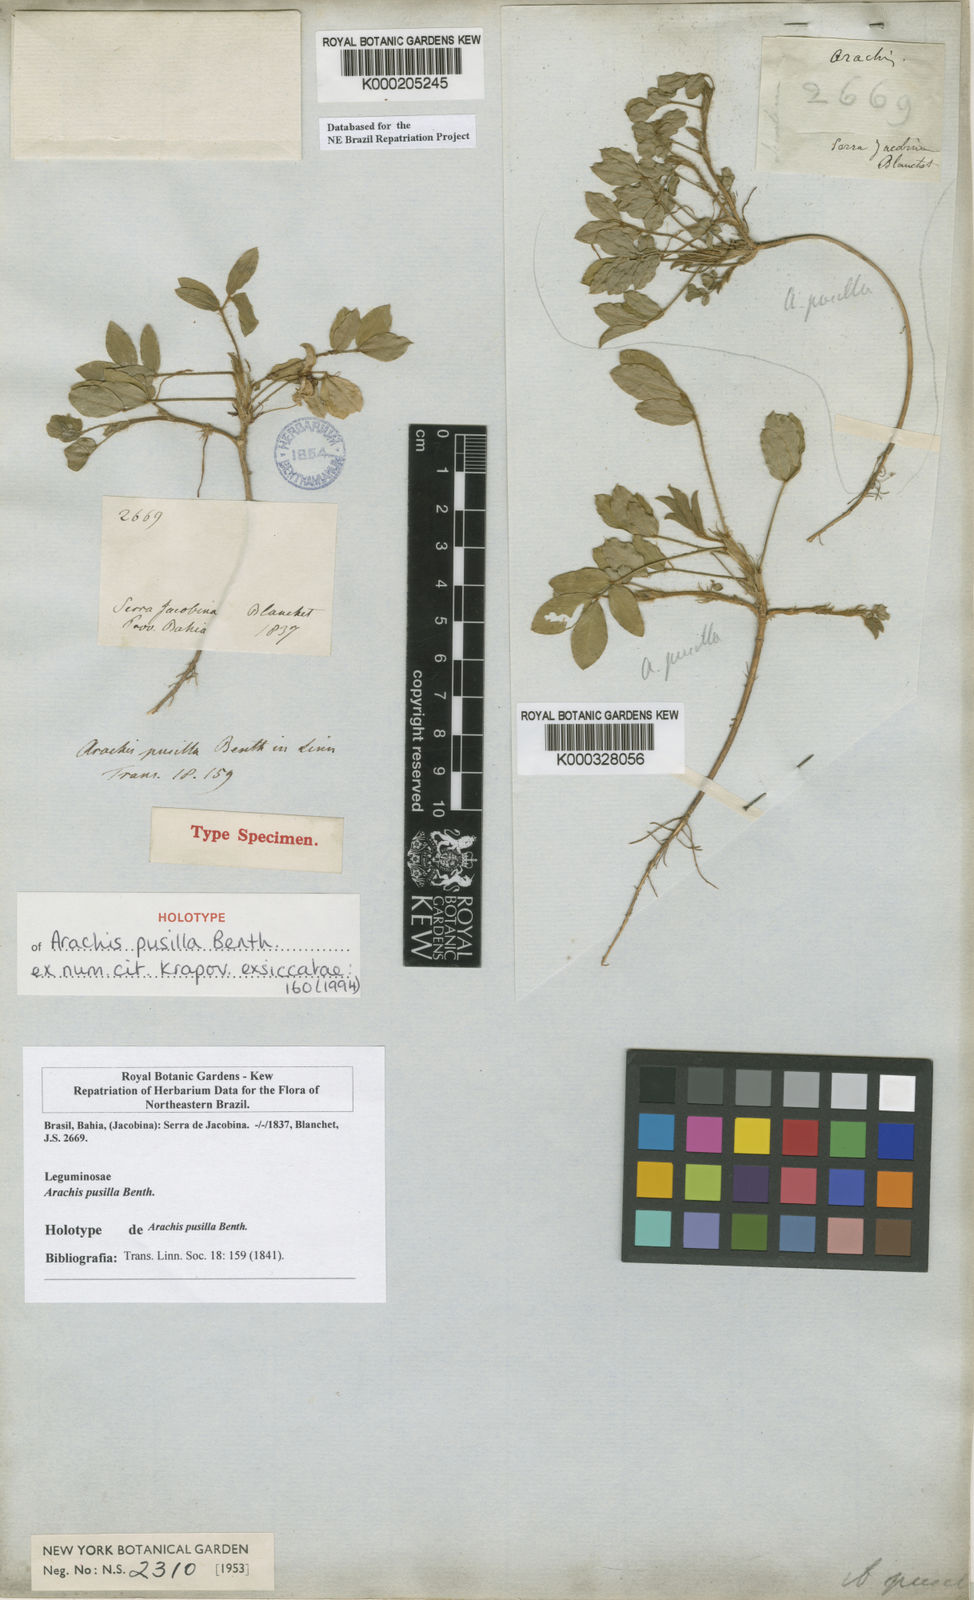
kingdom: Plantae
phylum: Tracheophyta
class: Magnoliopsida
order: Fabales
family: Fabaceae
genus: Arachis
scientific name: Arachis pusilla
